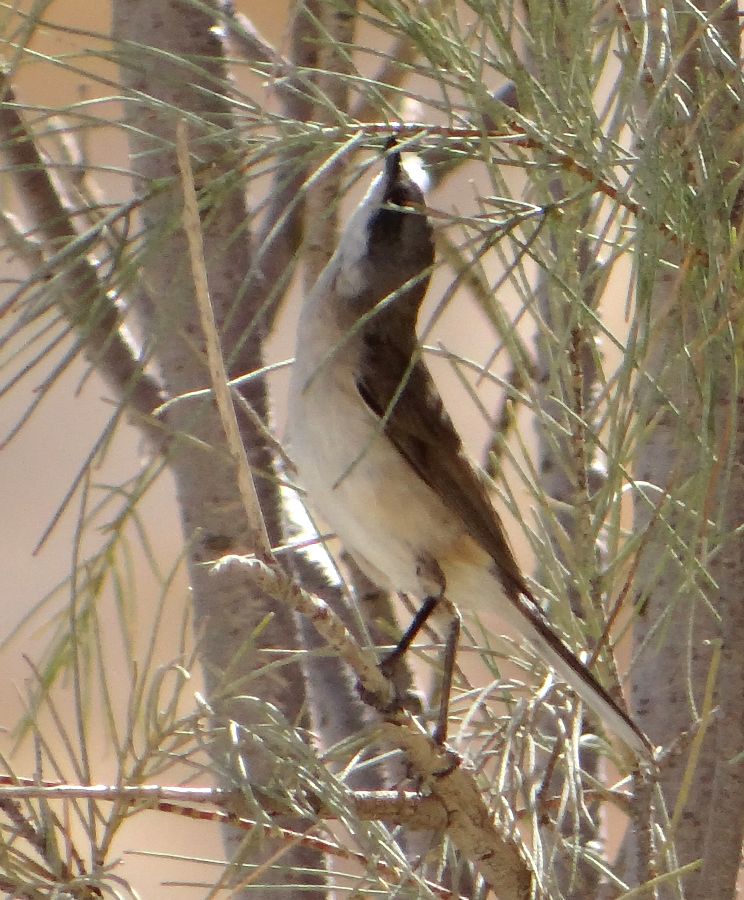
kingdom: Animalia
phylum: Chordata
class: Aves
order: Passeriformes
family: Sylviidae
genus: Sylvia
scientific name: Sylvia curruca
